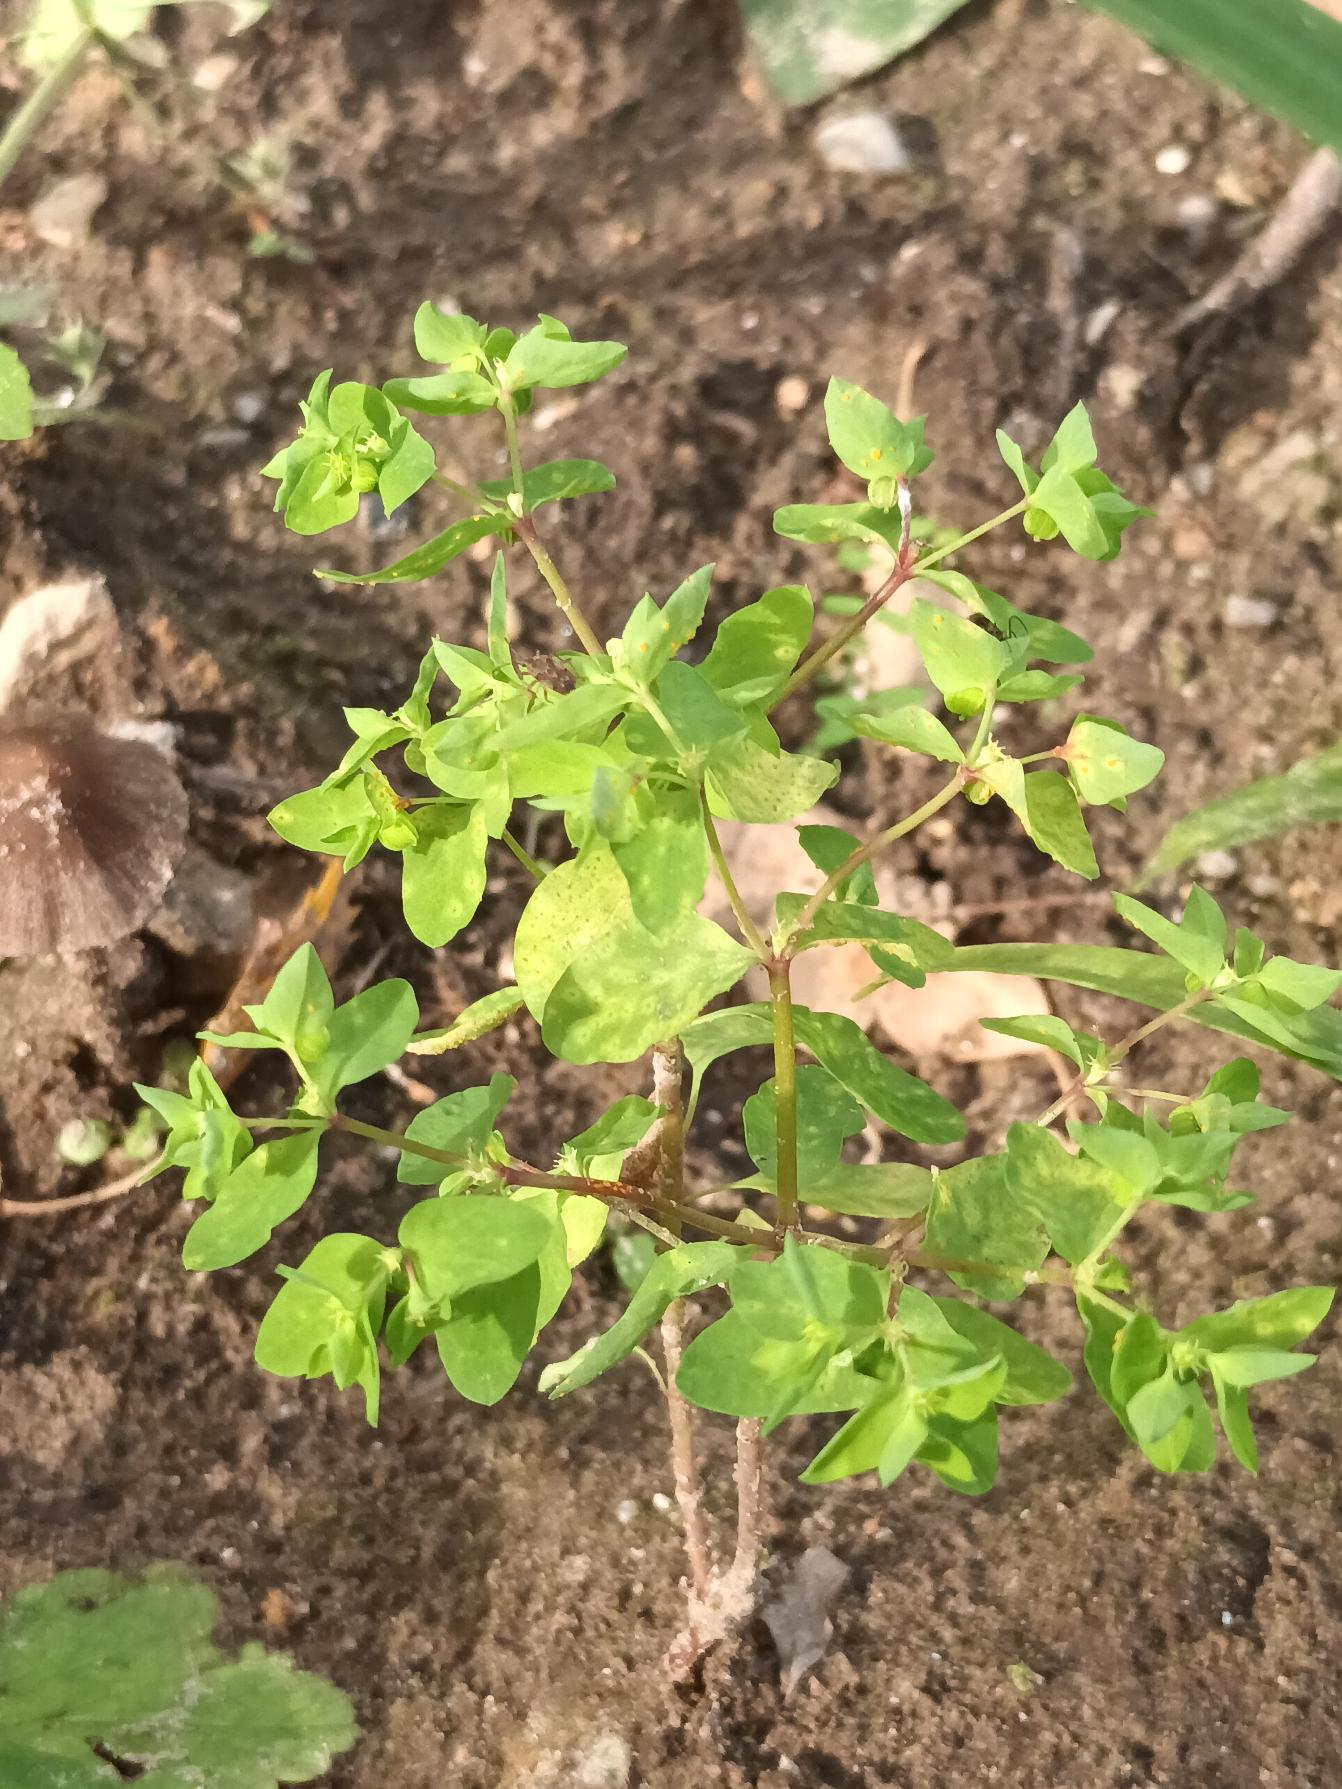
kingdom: Plantae
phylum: Tracheophyta
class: Magnoliopsida
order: Malpighiales
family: Euphorbiaceae
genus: Euphorbia
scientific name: Euphorbia peplus
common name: Gaffel-vortemælk
